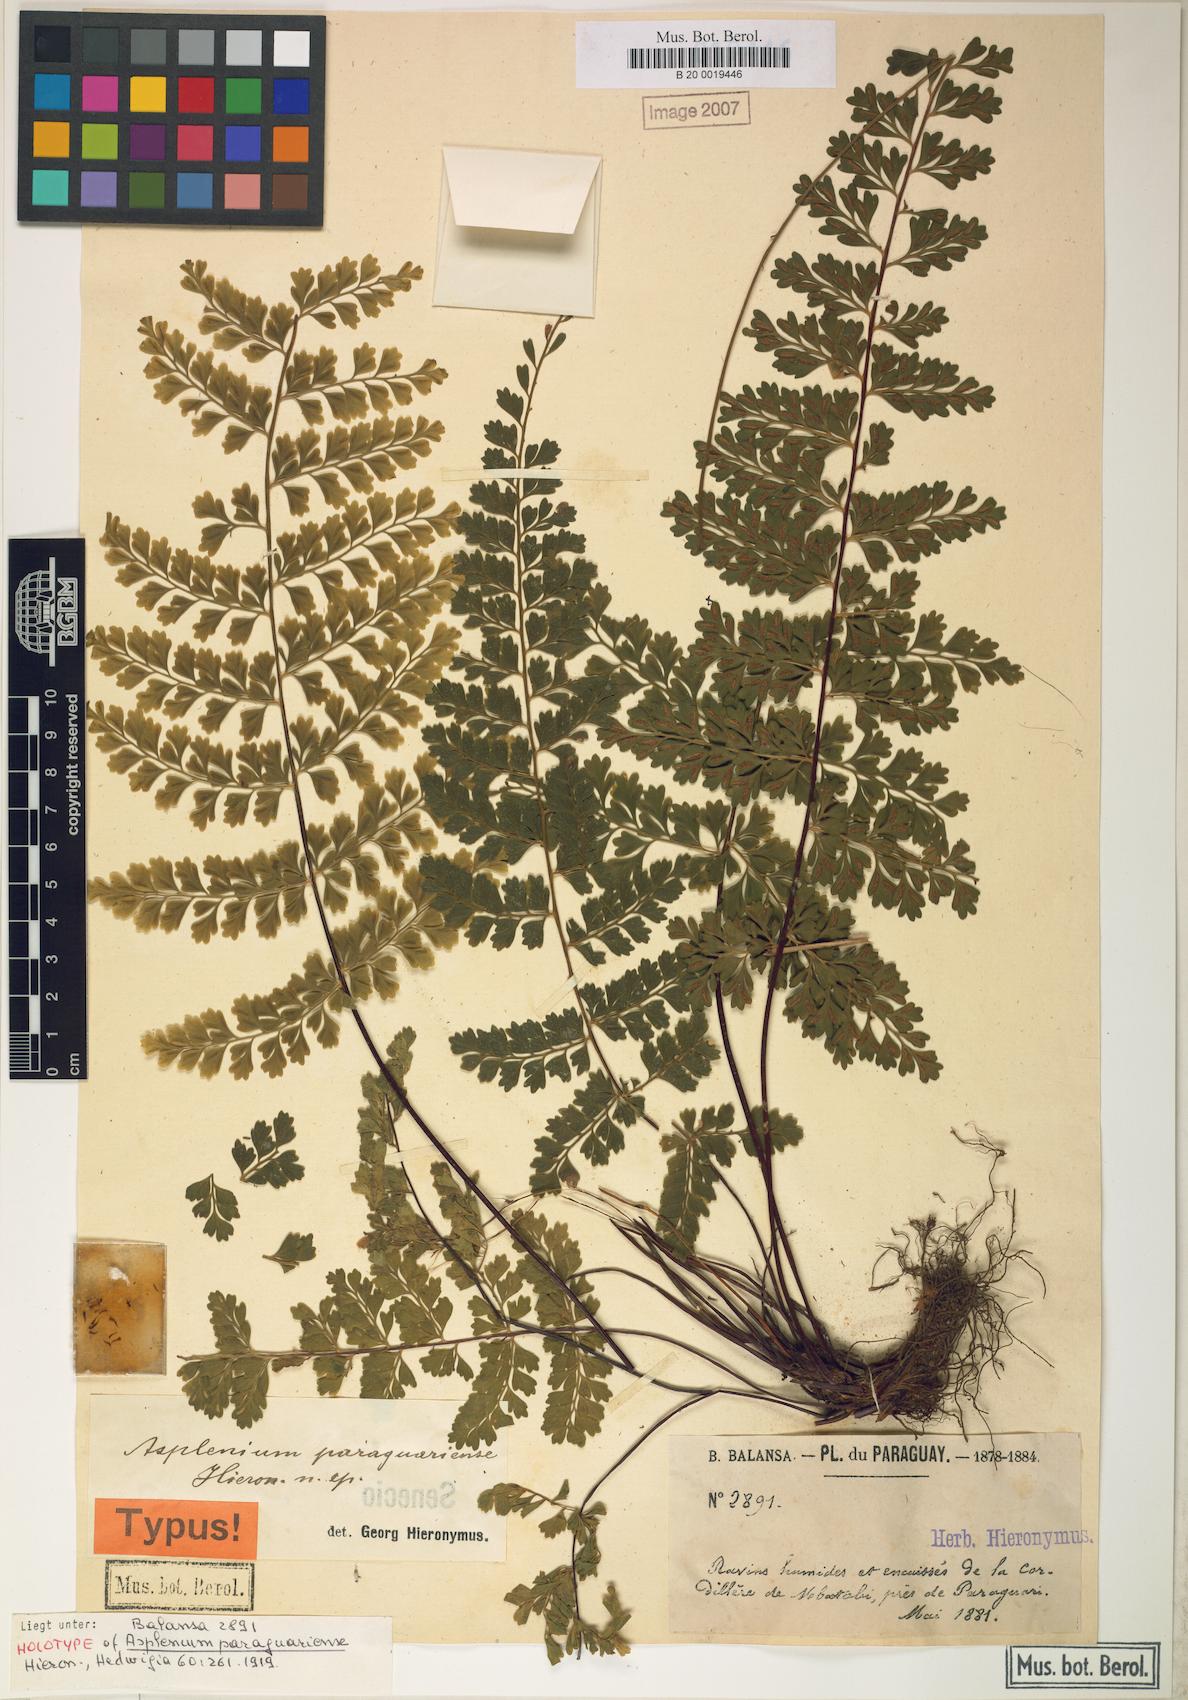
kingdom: Plantae
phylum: Tracheophyta
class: Polypodiopsida
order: Polypodiales
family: Aspleniaceae
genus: Asplenium
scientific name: Asplenium radicans
